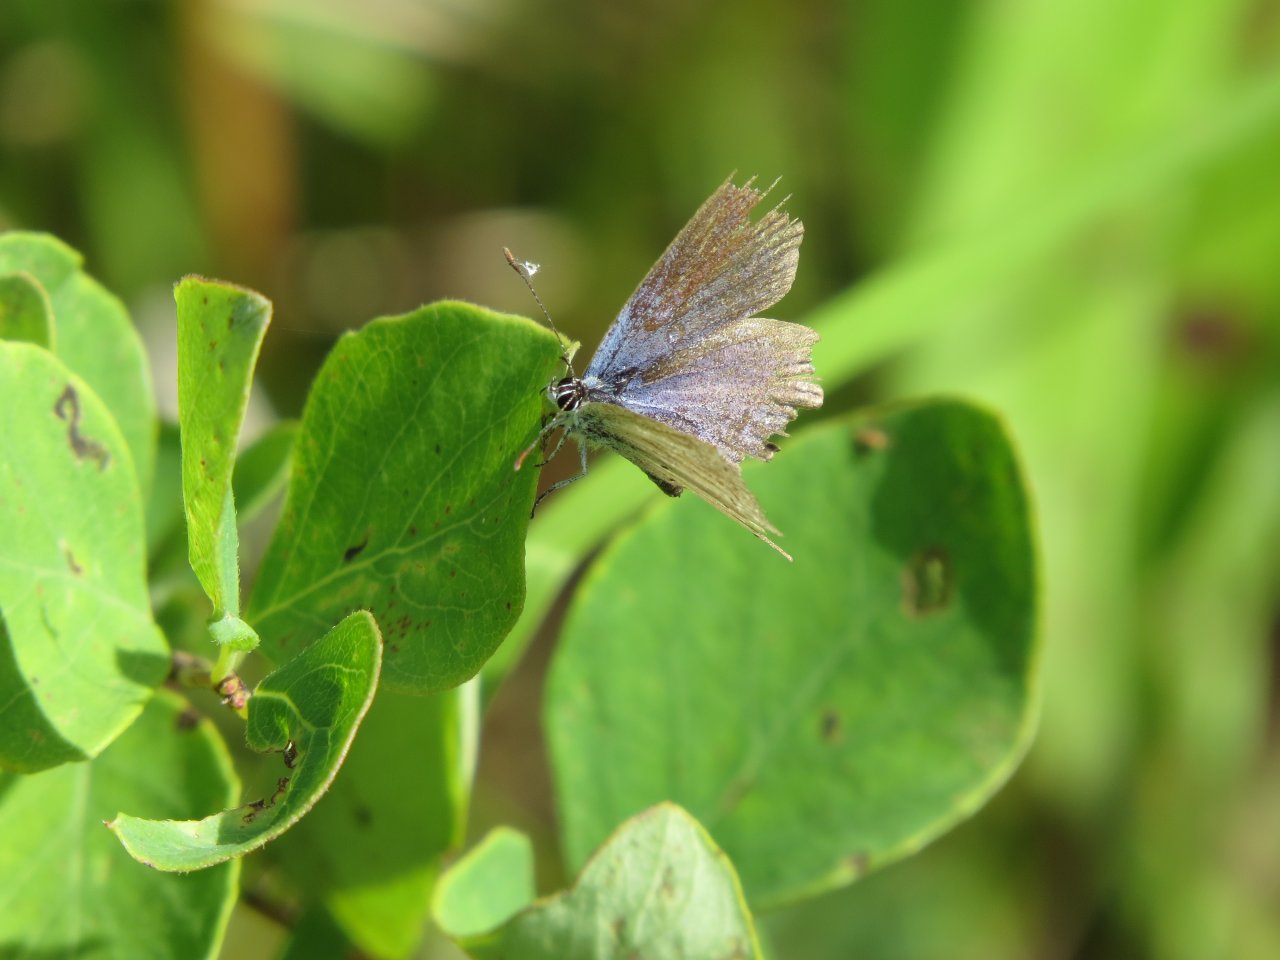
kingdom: Animalia
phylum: Arthropoda
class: Insecta
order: Lepidoptera
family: Lycaenidae
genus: Agriades
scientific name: Agriades glandon
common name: Arctic Blue
